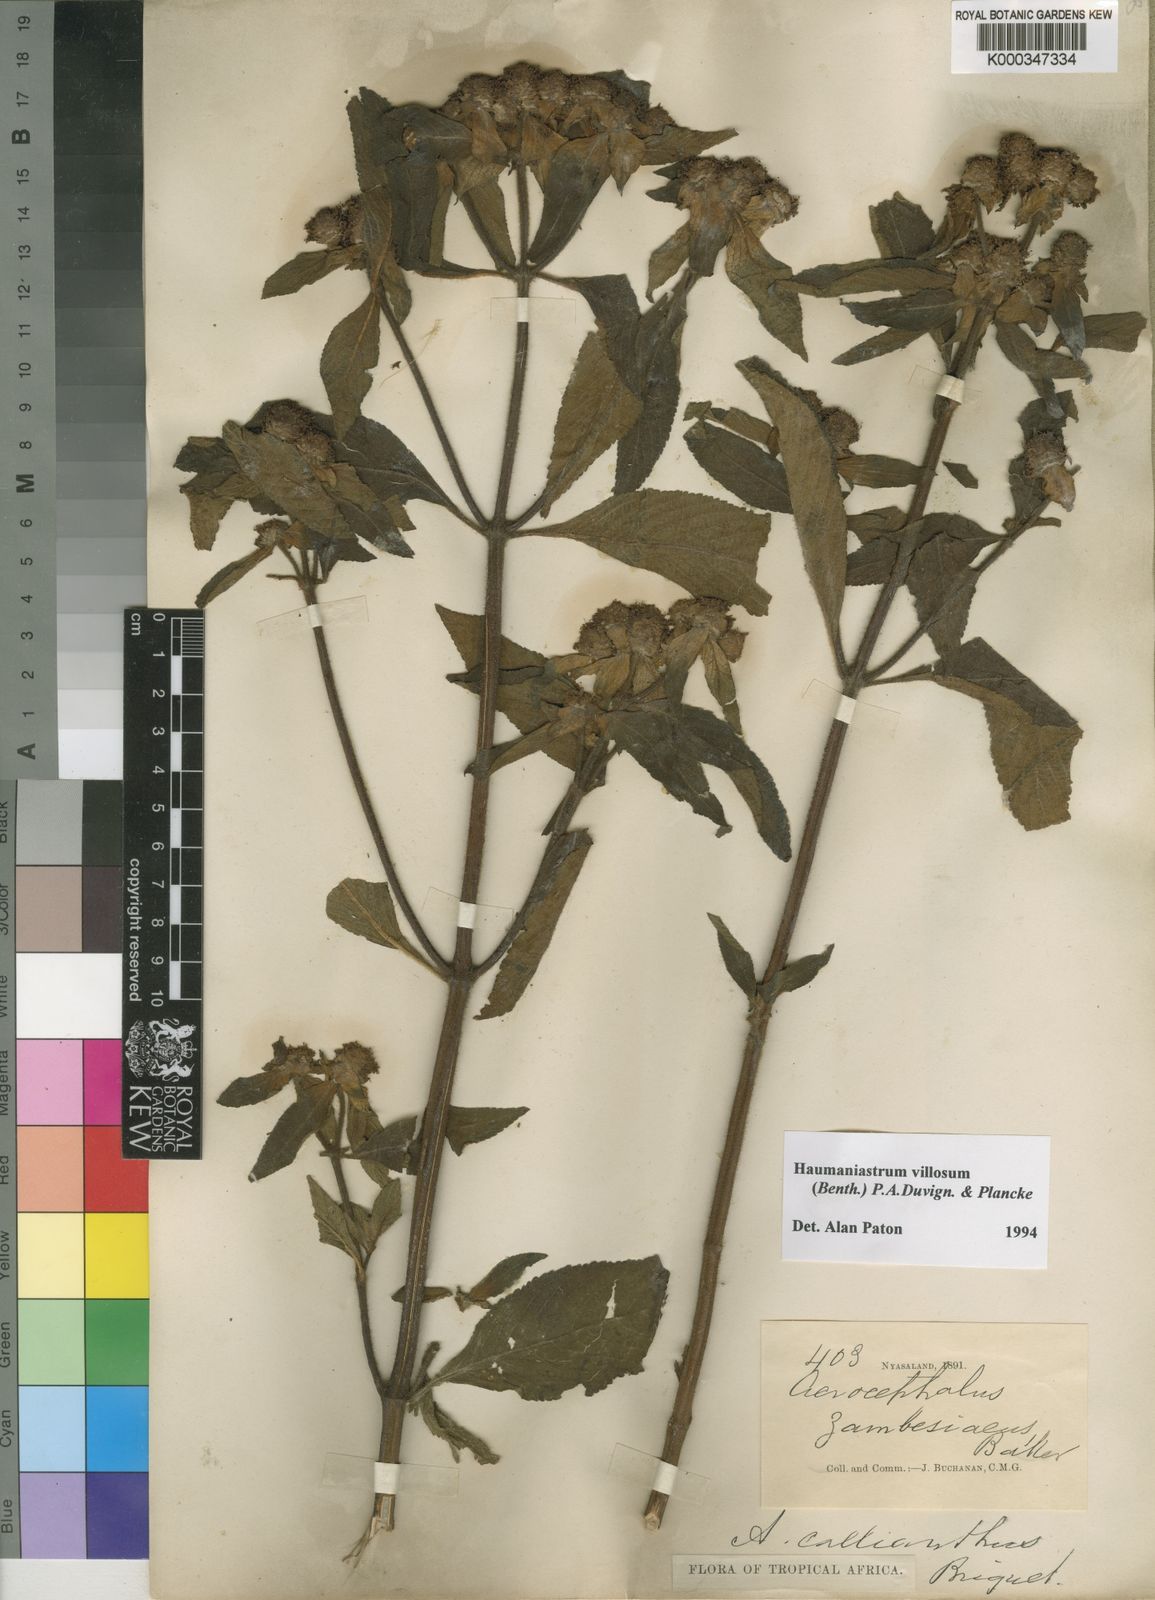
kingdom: Plantae
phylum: Tracheophyta
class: Magnoliopsida
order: Lamiales
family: Lamiaceae
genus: Haumaniastrum
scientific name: Haumaniastrum villosum
